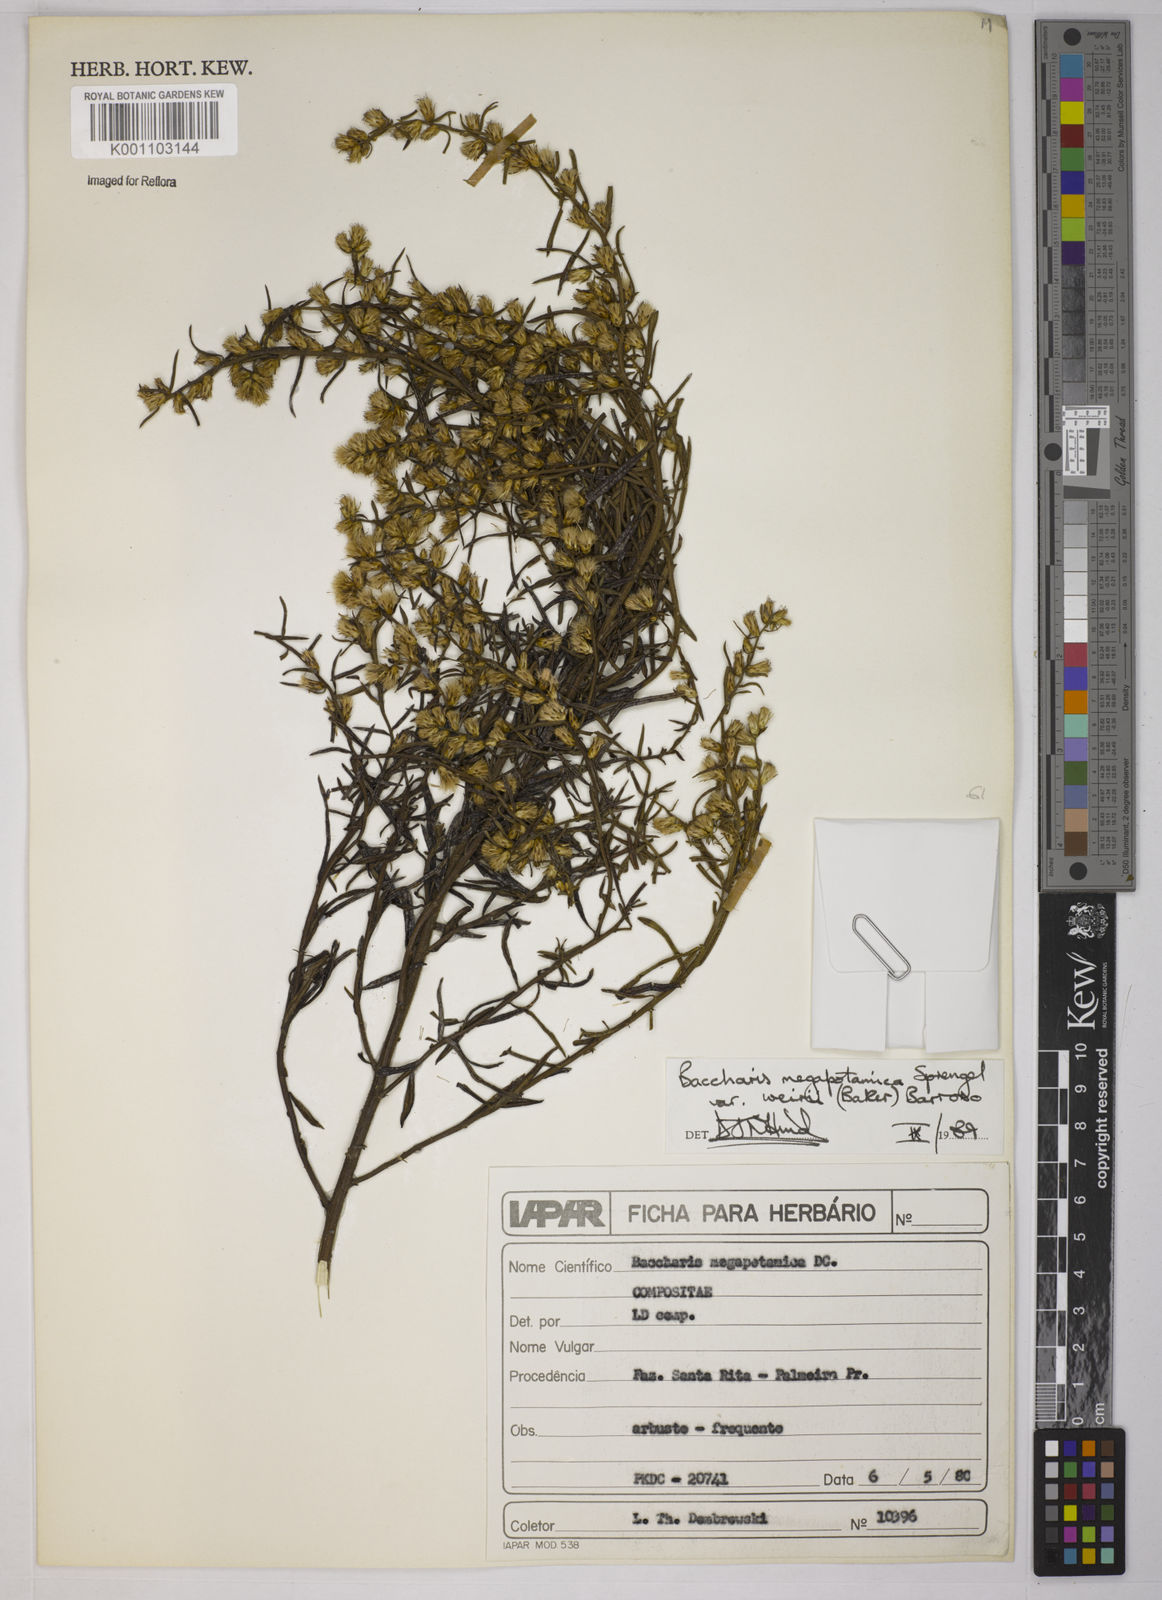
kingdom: Plantae
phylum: Tracheophyta
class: Magnoliopsida
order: Asterales
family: Asteraceae
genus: Baccharis
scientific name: Baccharis megapotamica
